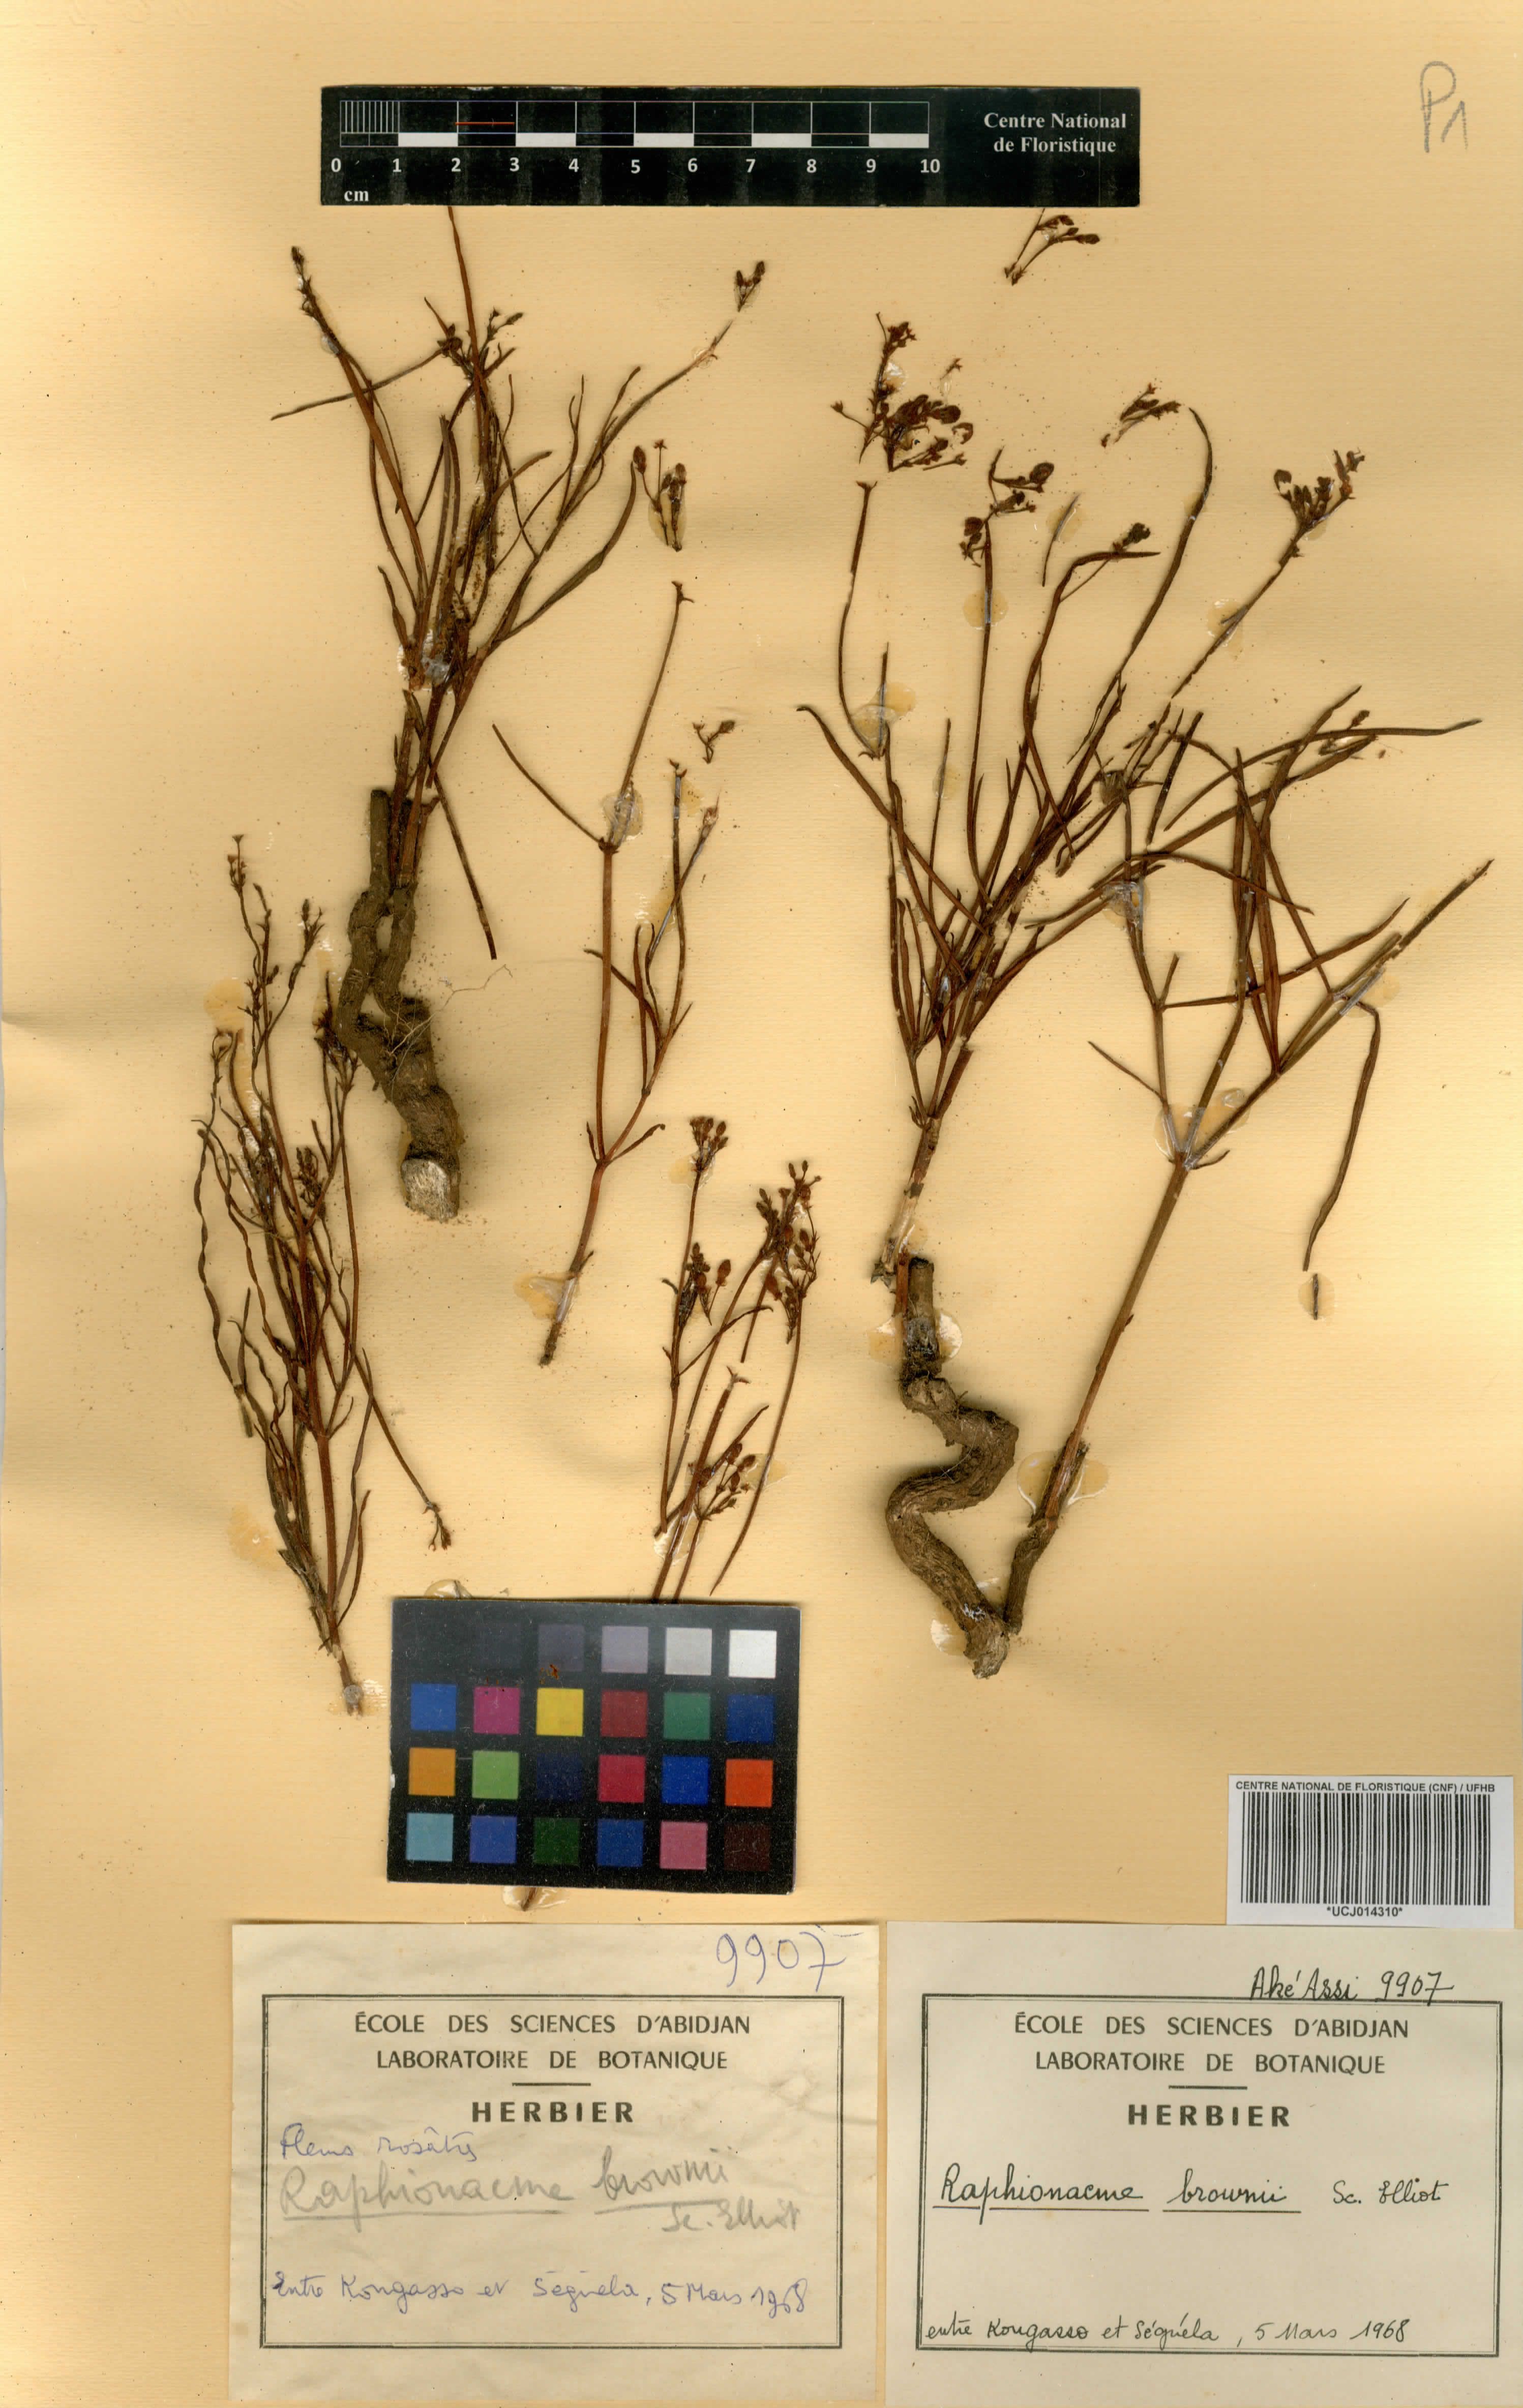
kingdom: Plantae
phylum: Tracheophyta
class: Magnoliopsida
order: Gentianales
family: Apocynaceae
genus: Raphionacme
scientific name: Raphionacme brownii
